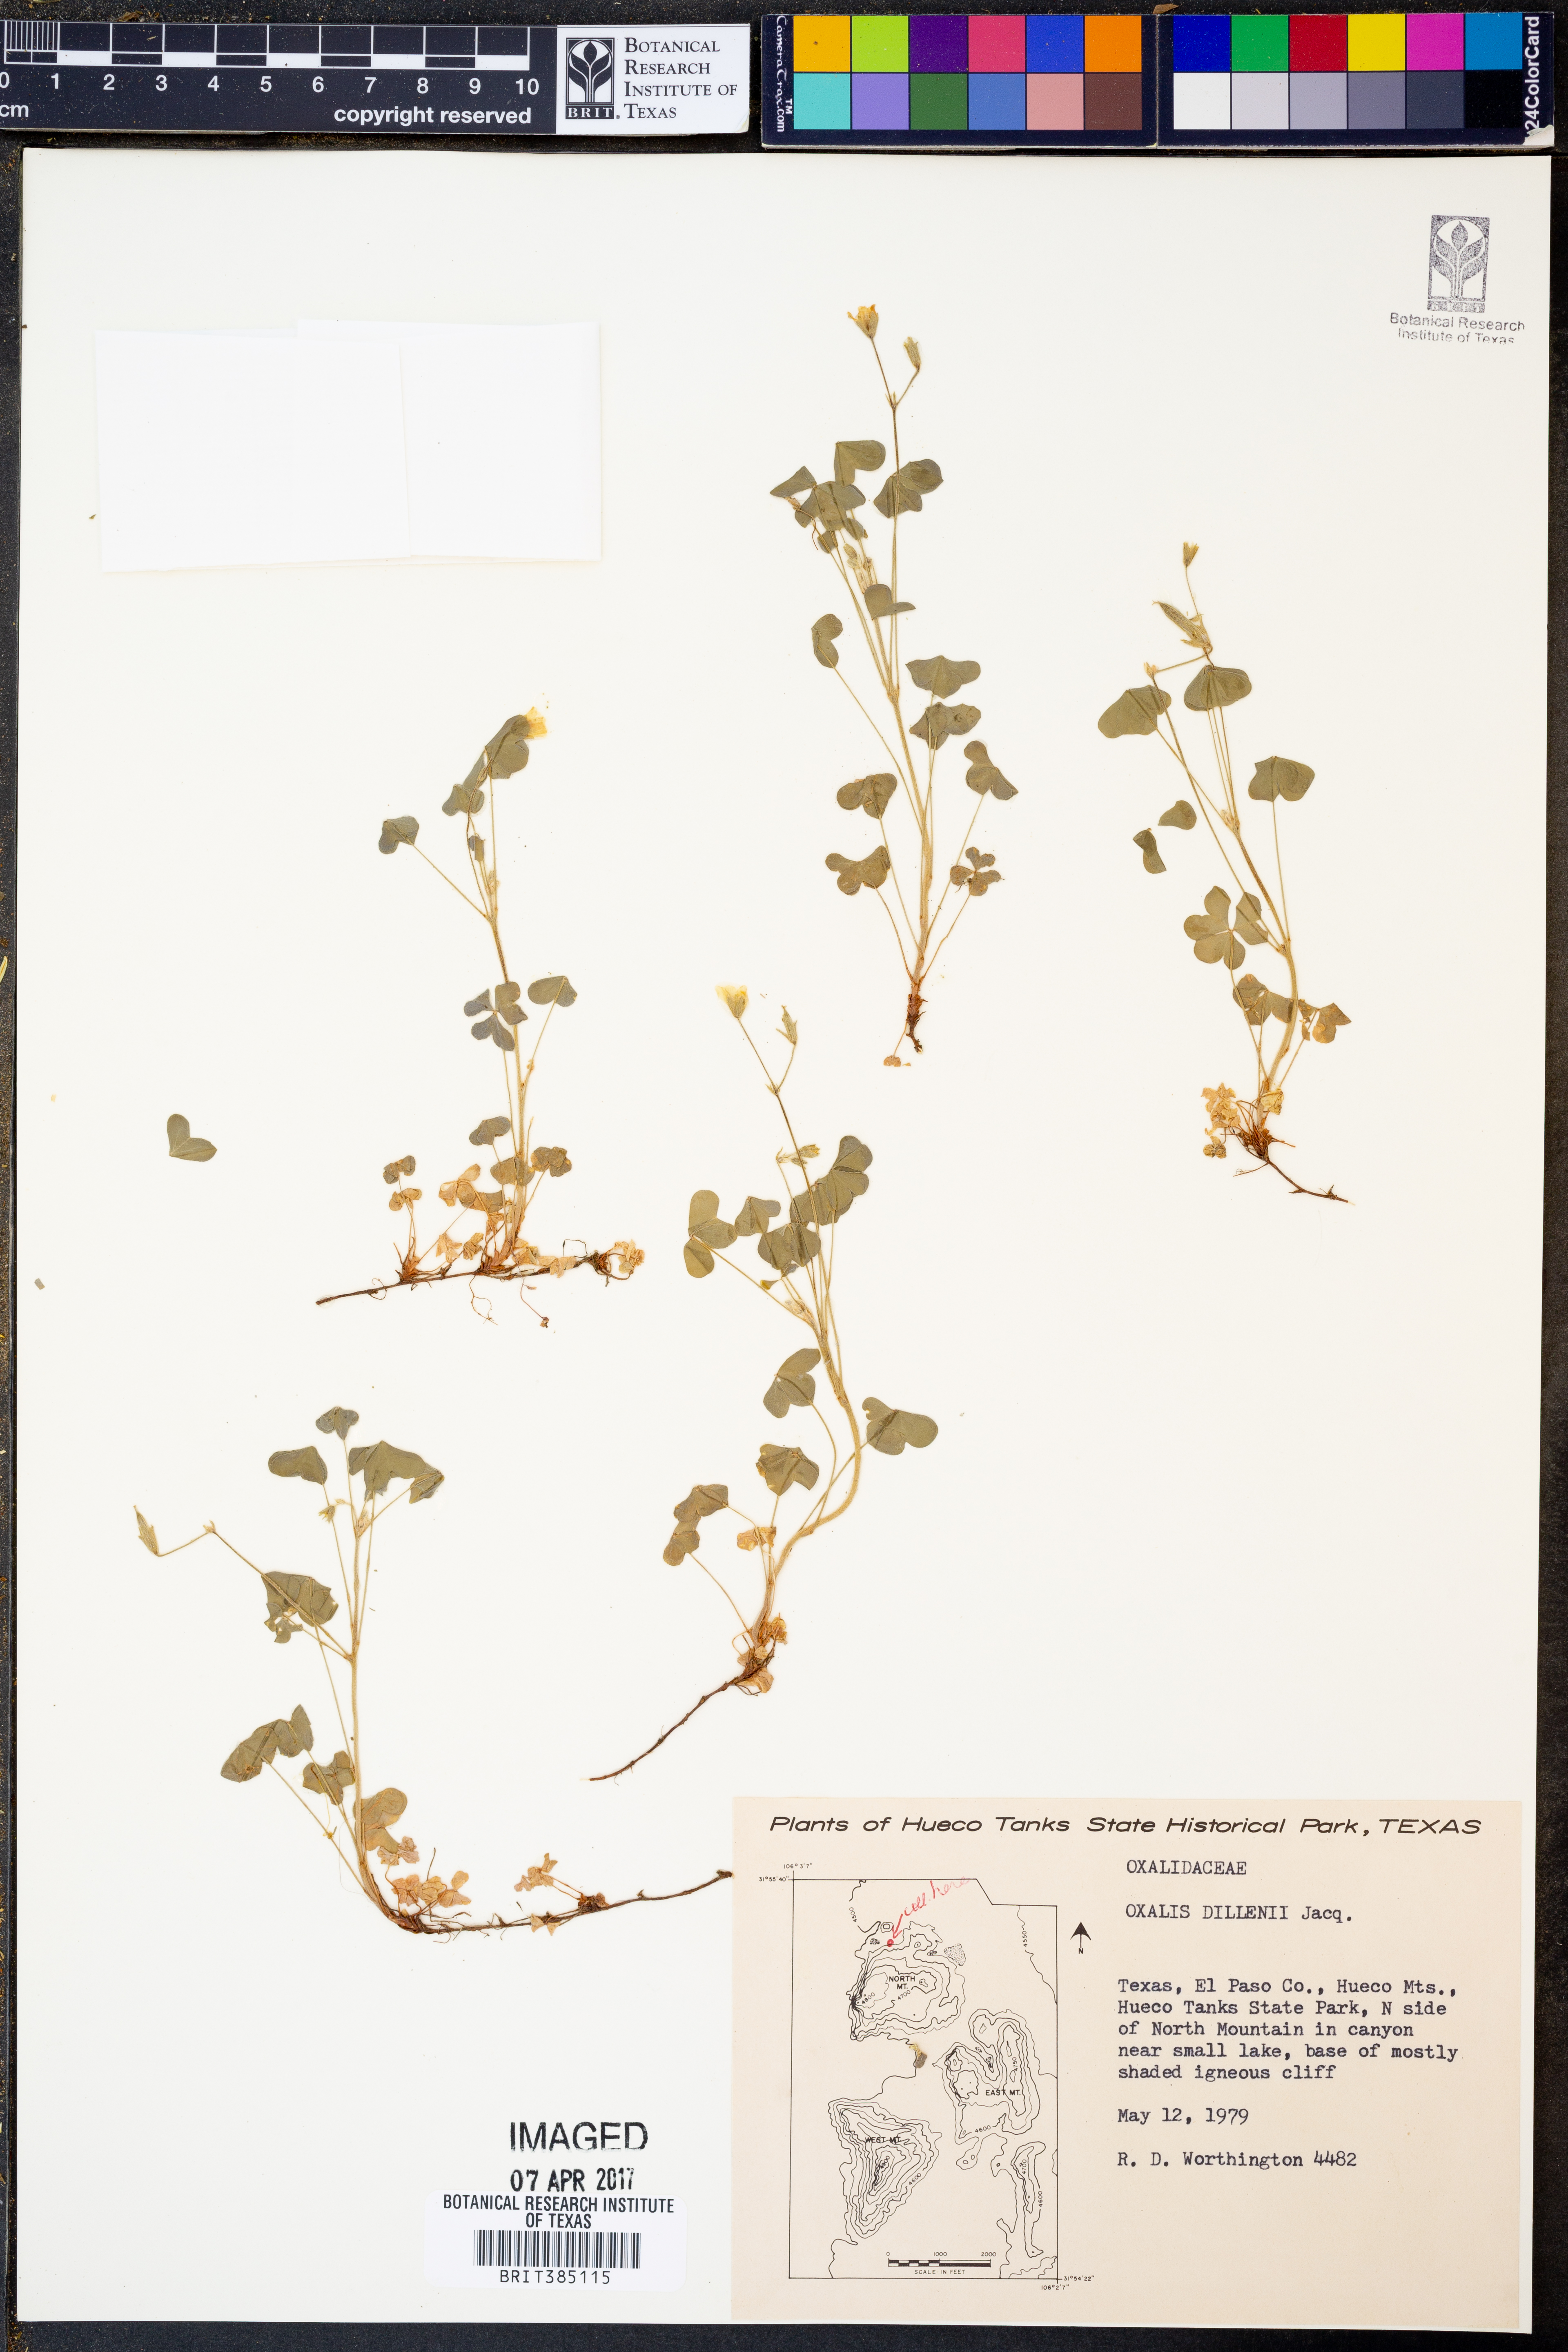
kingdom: Plantae
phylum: Tracheophyta
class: Magnoliopsida
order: Oxalidales
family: Oxalidaceae
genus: Oxalis
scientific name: Oxalis dillenii
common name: Sussex yellow-sorrel
